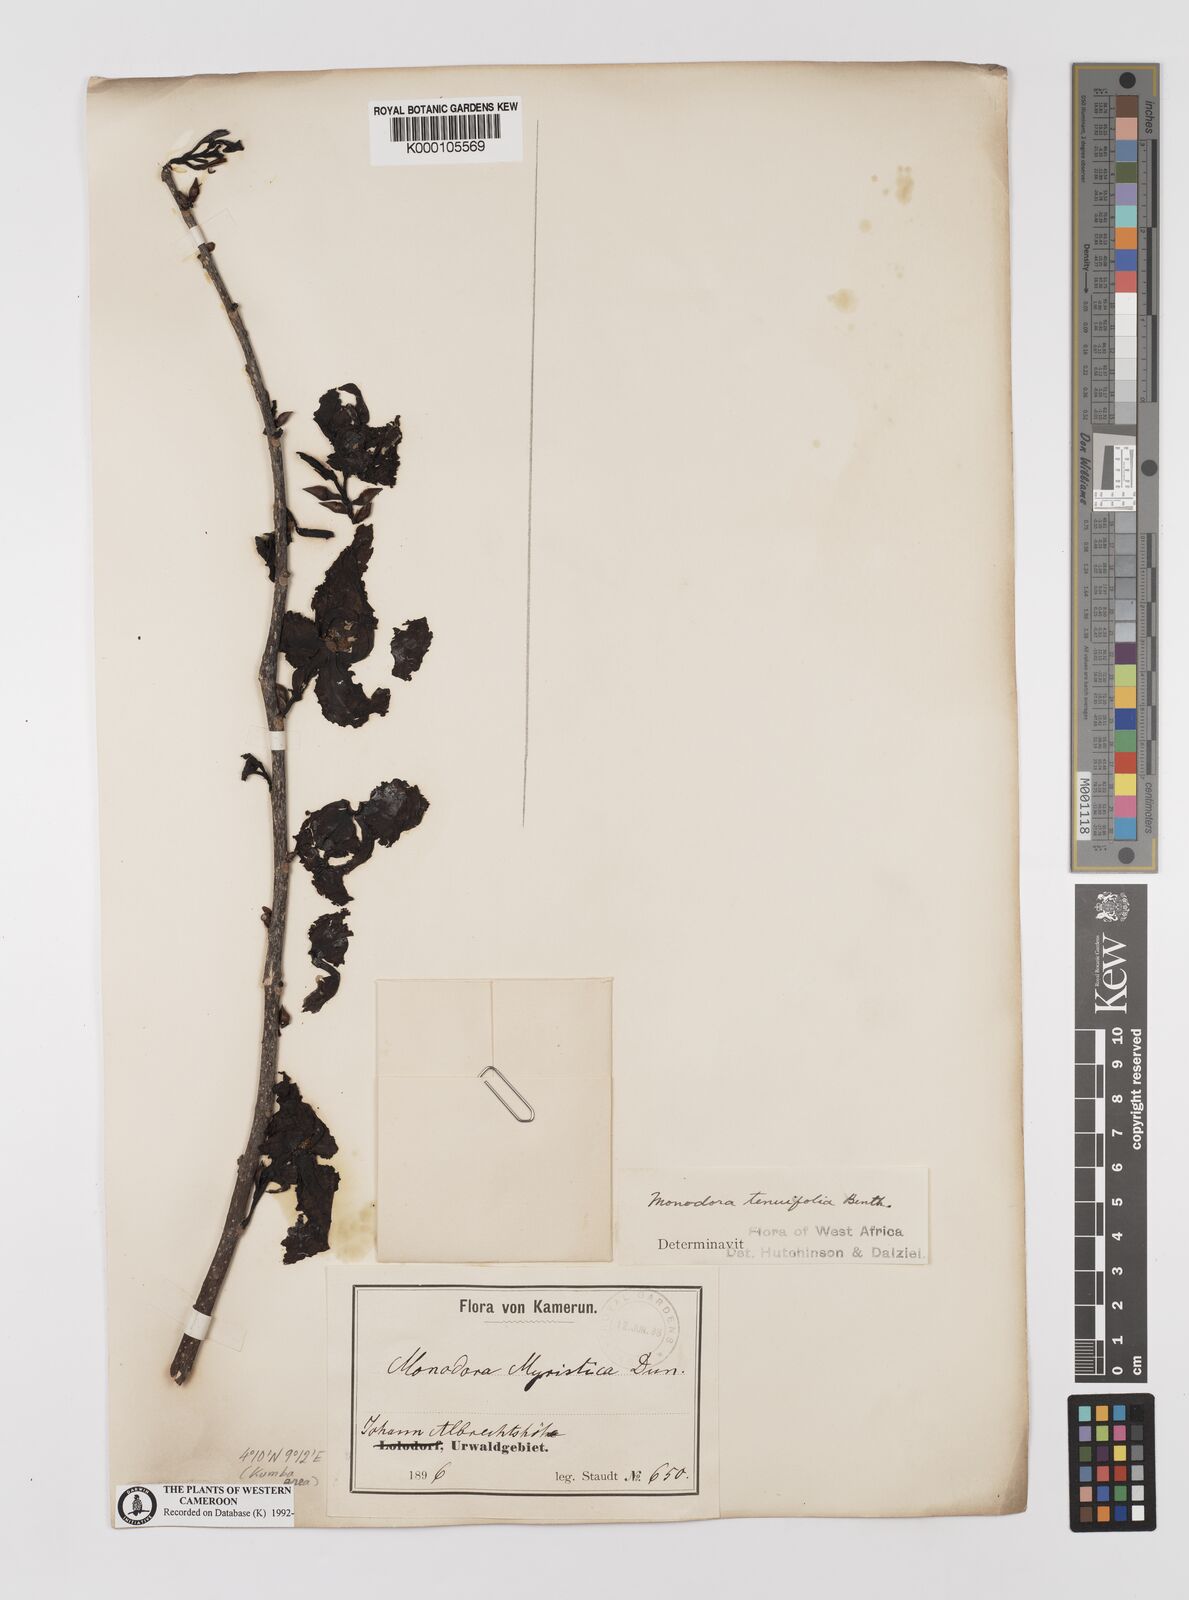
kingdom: Plantae
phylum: Tracheophyta
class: Magnoliopsida
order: Magnoliales
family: Annonaceae
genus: Monodora
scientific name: Monodora tenuifolia
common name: Orchidtree
